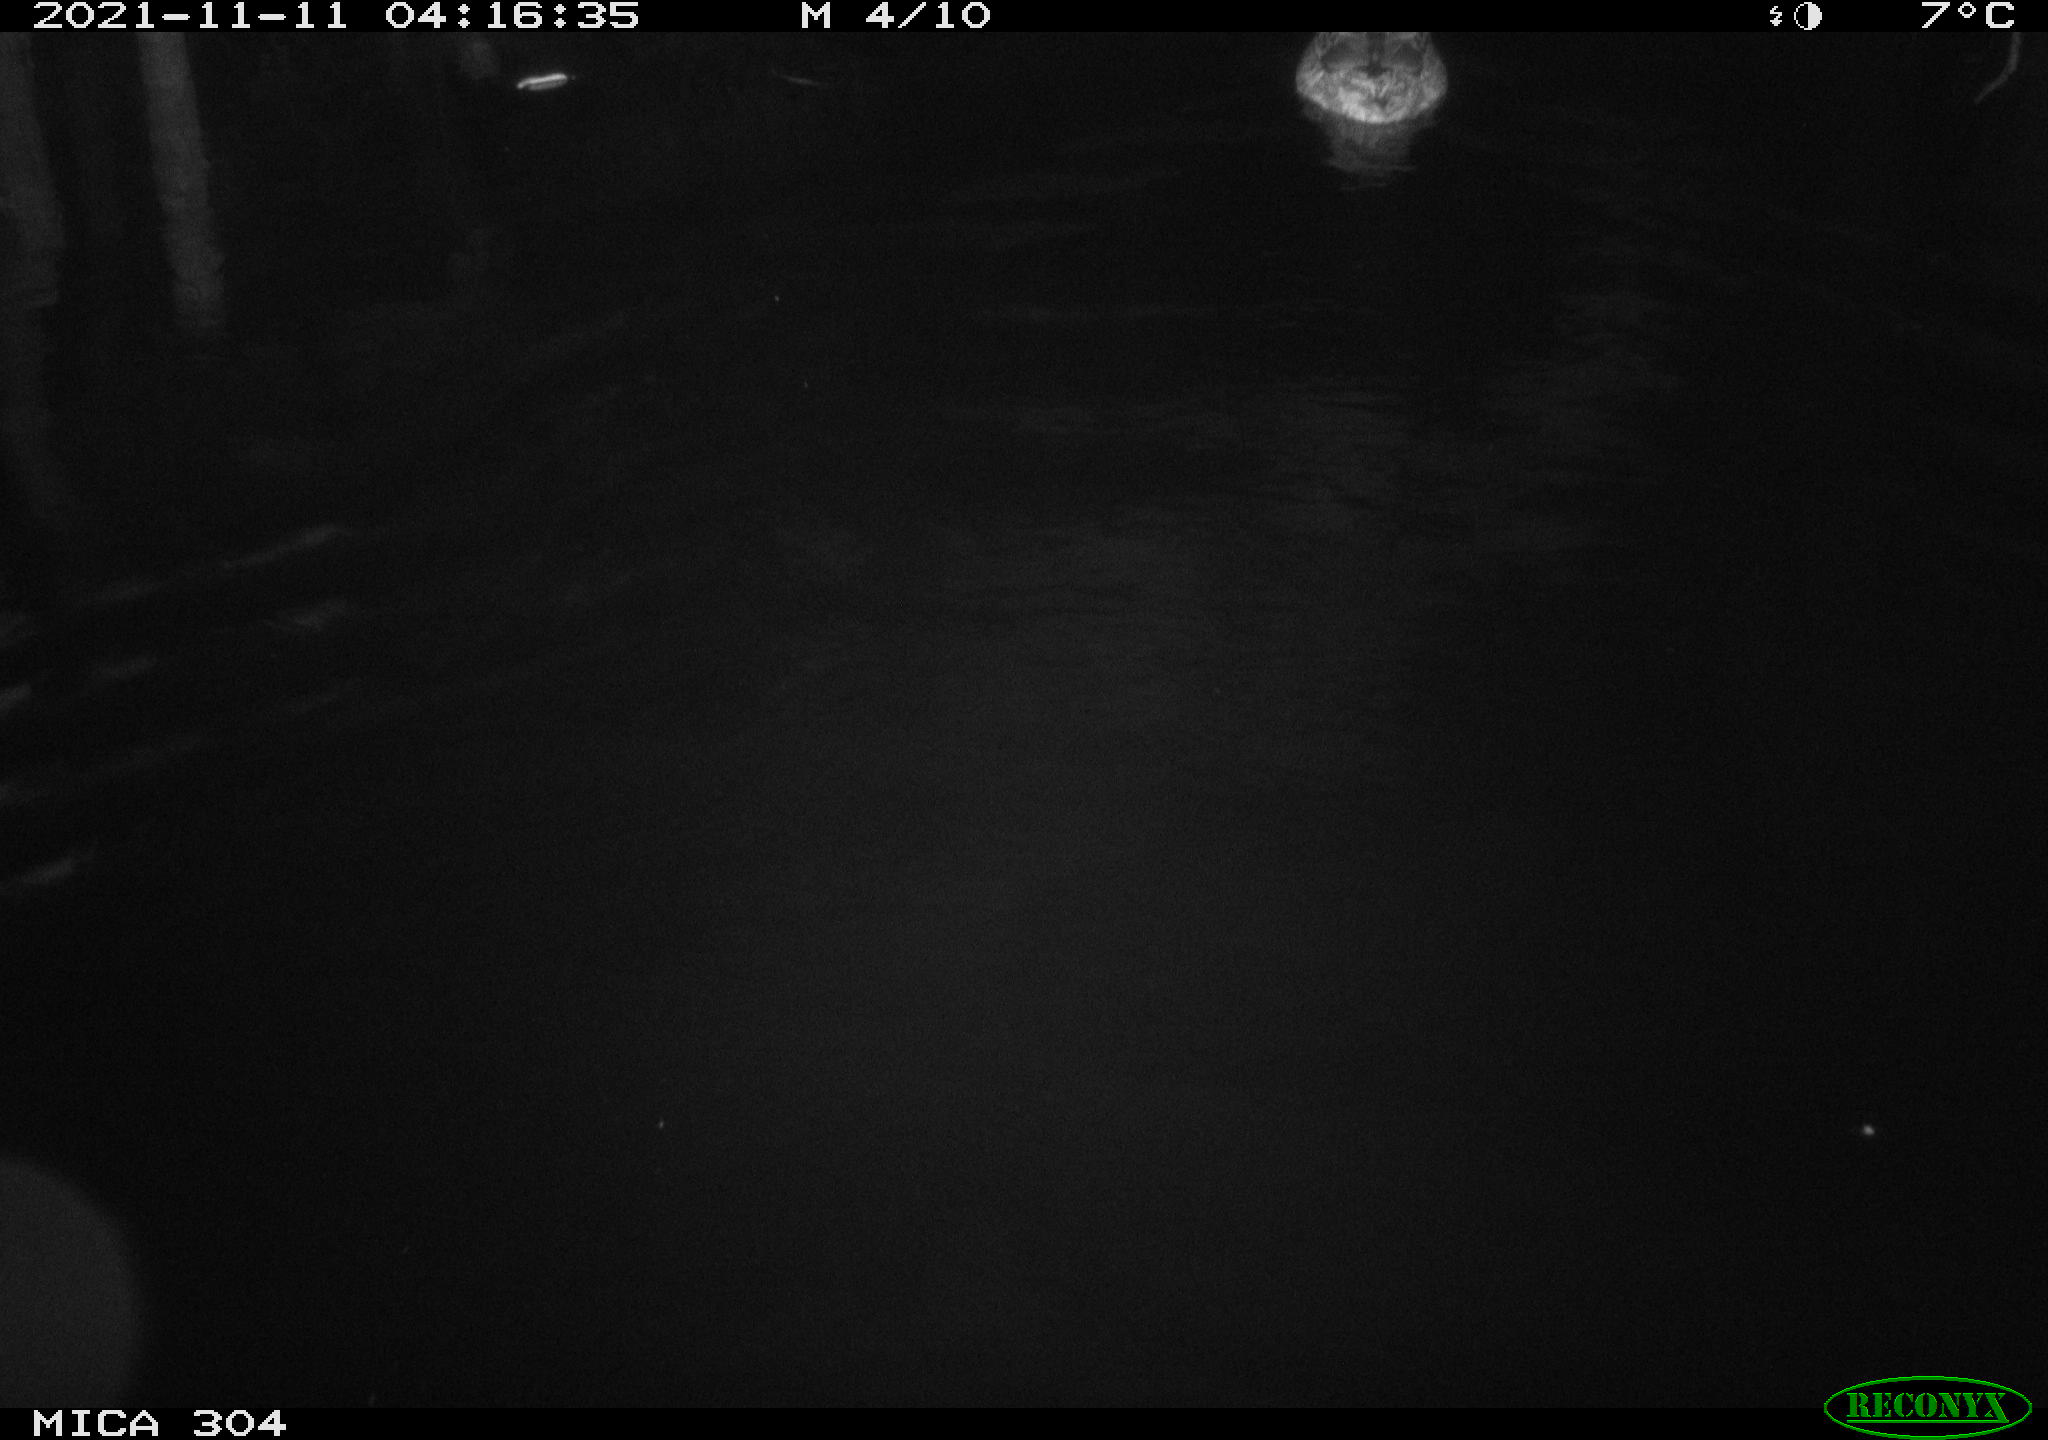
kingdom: Animalia
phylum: Chordata
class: Aves
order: Anseriformes
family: Anatidae
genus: Anas
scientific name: Anas platyrhynchos
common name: Mallard
